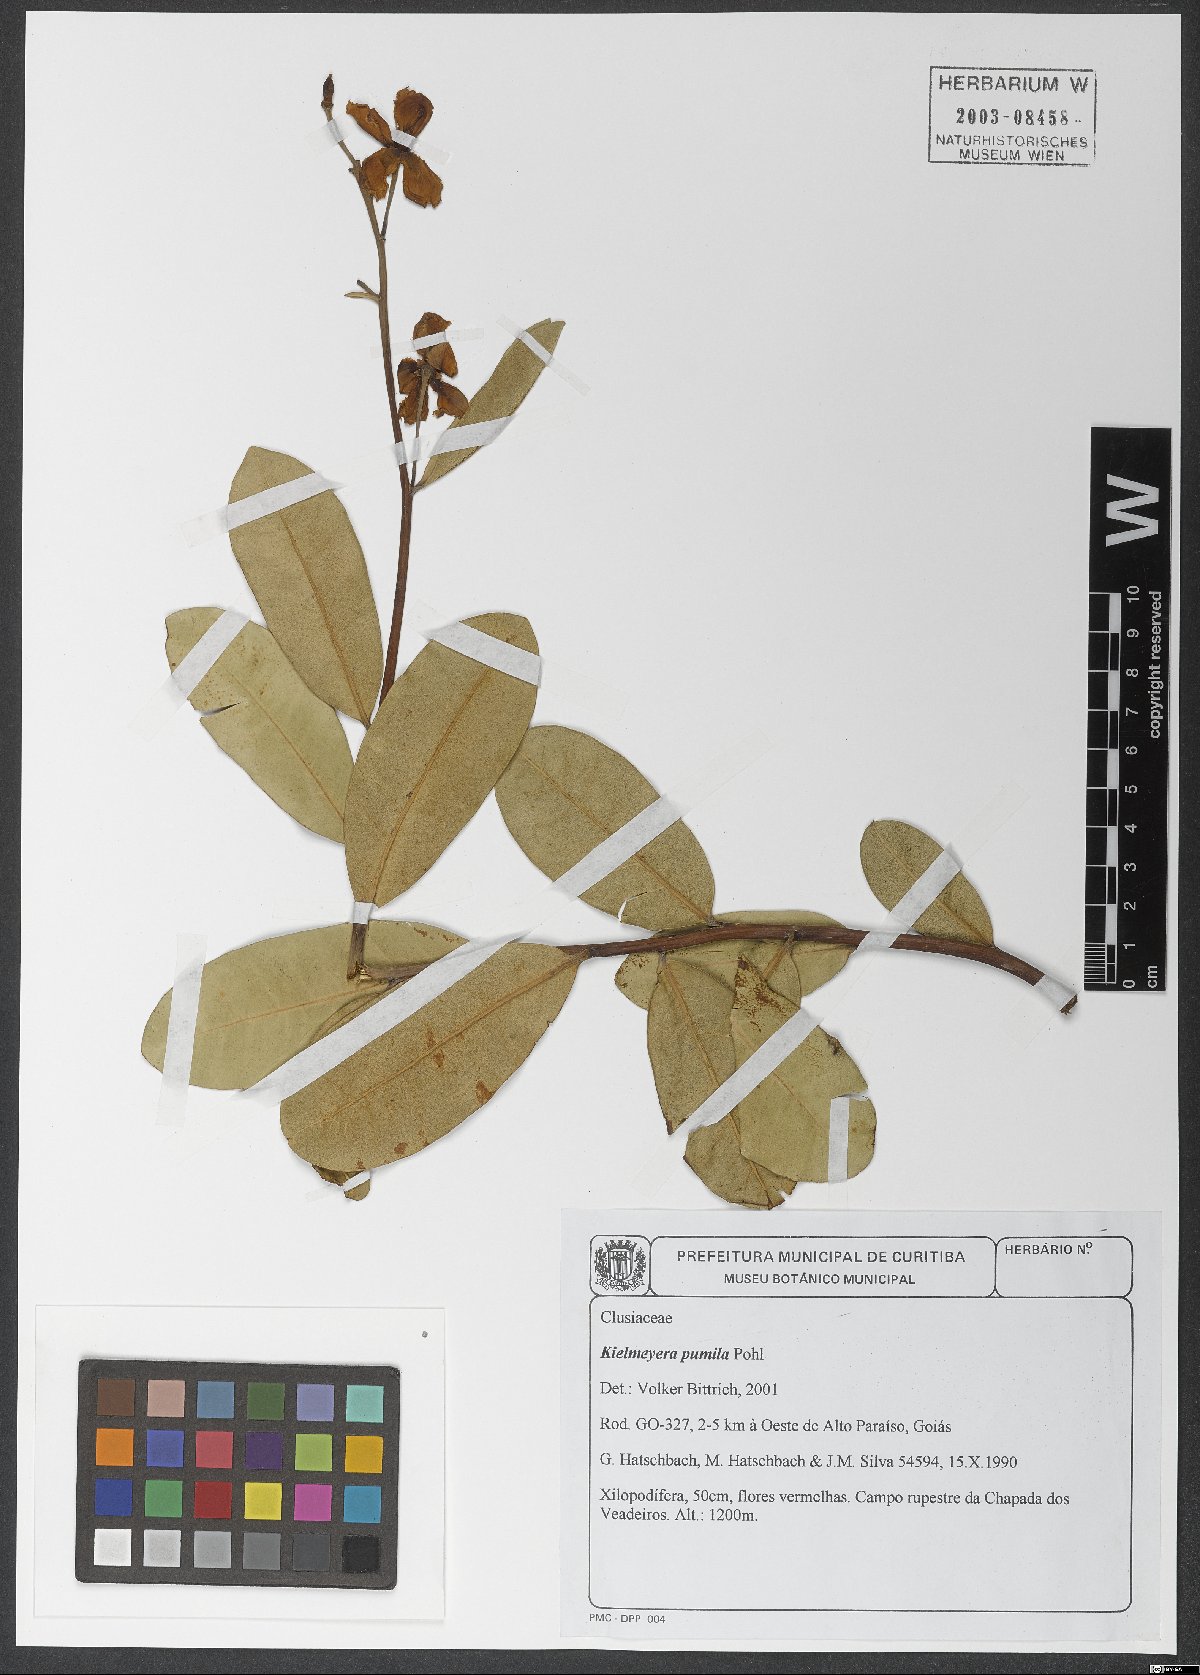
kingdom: Plantae
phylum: Tracheophyta
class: Magnoliopsida
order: Malpighiales
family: Calophyllaceae
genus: Kielmeyera
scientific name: Kielmeyera pumila
